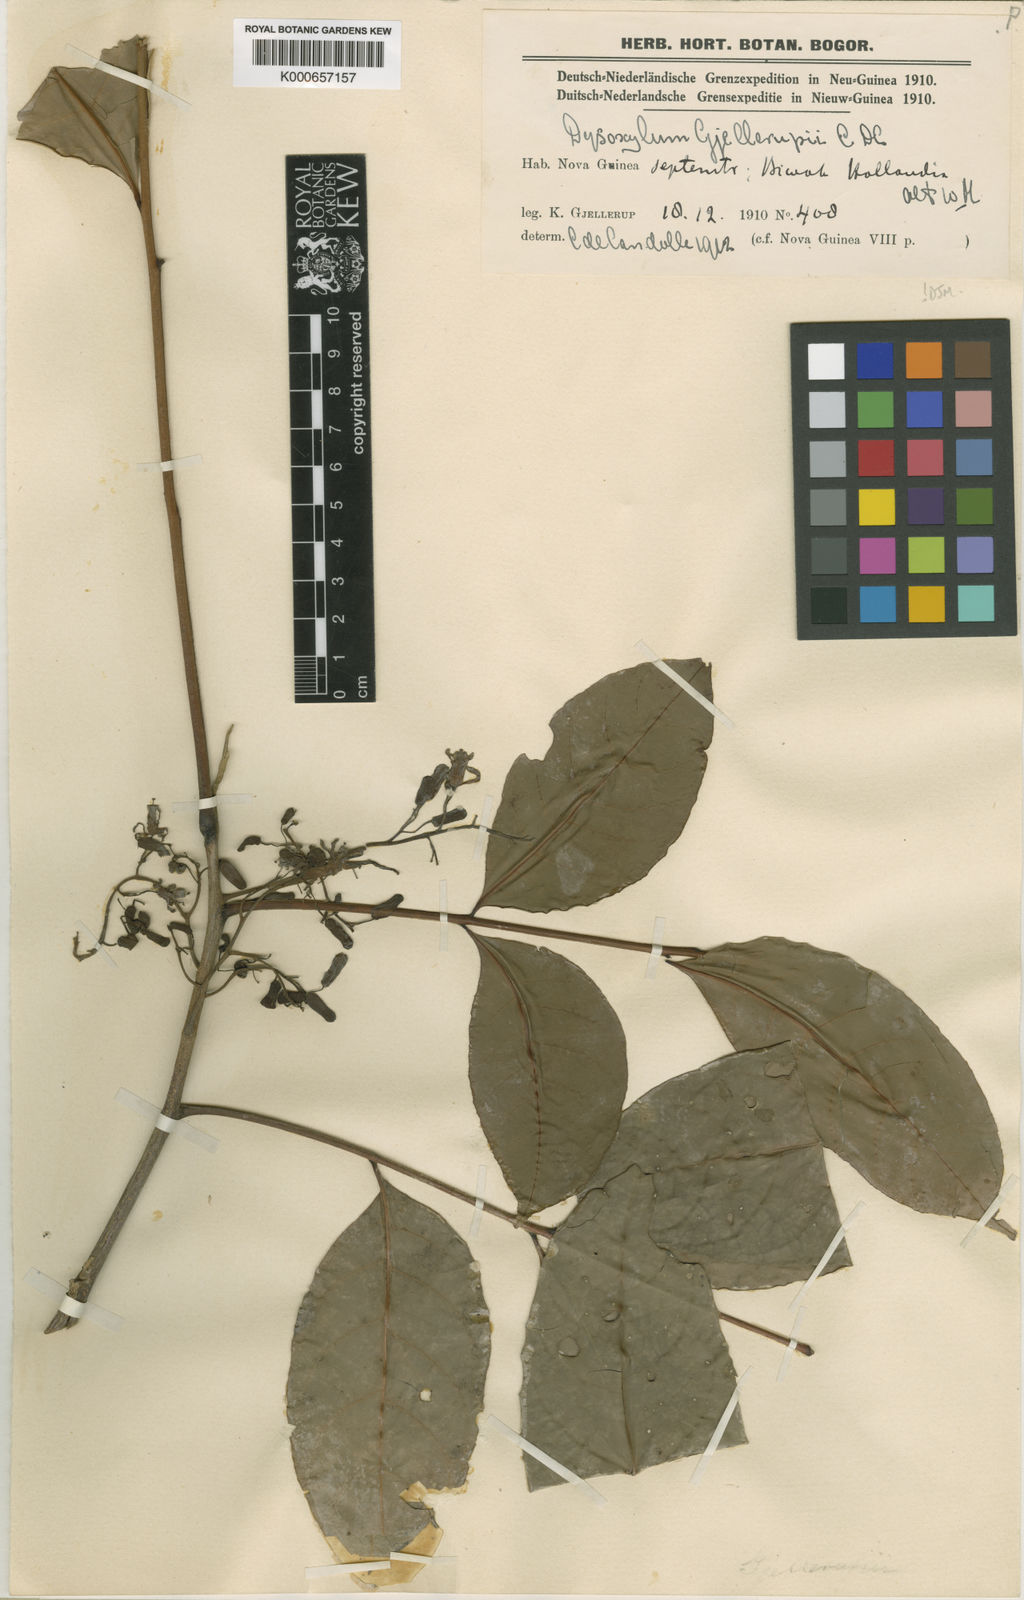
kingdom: Plantae
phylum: Tracheophyta
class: Magnoliopsida
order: Sapindales
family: Meliaceae
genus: Goniocheton
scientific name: Goniocheton arborescens
